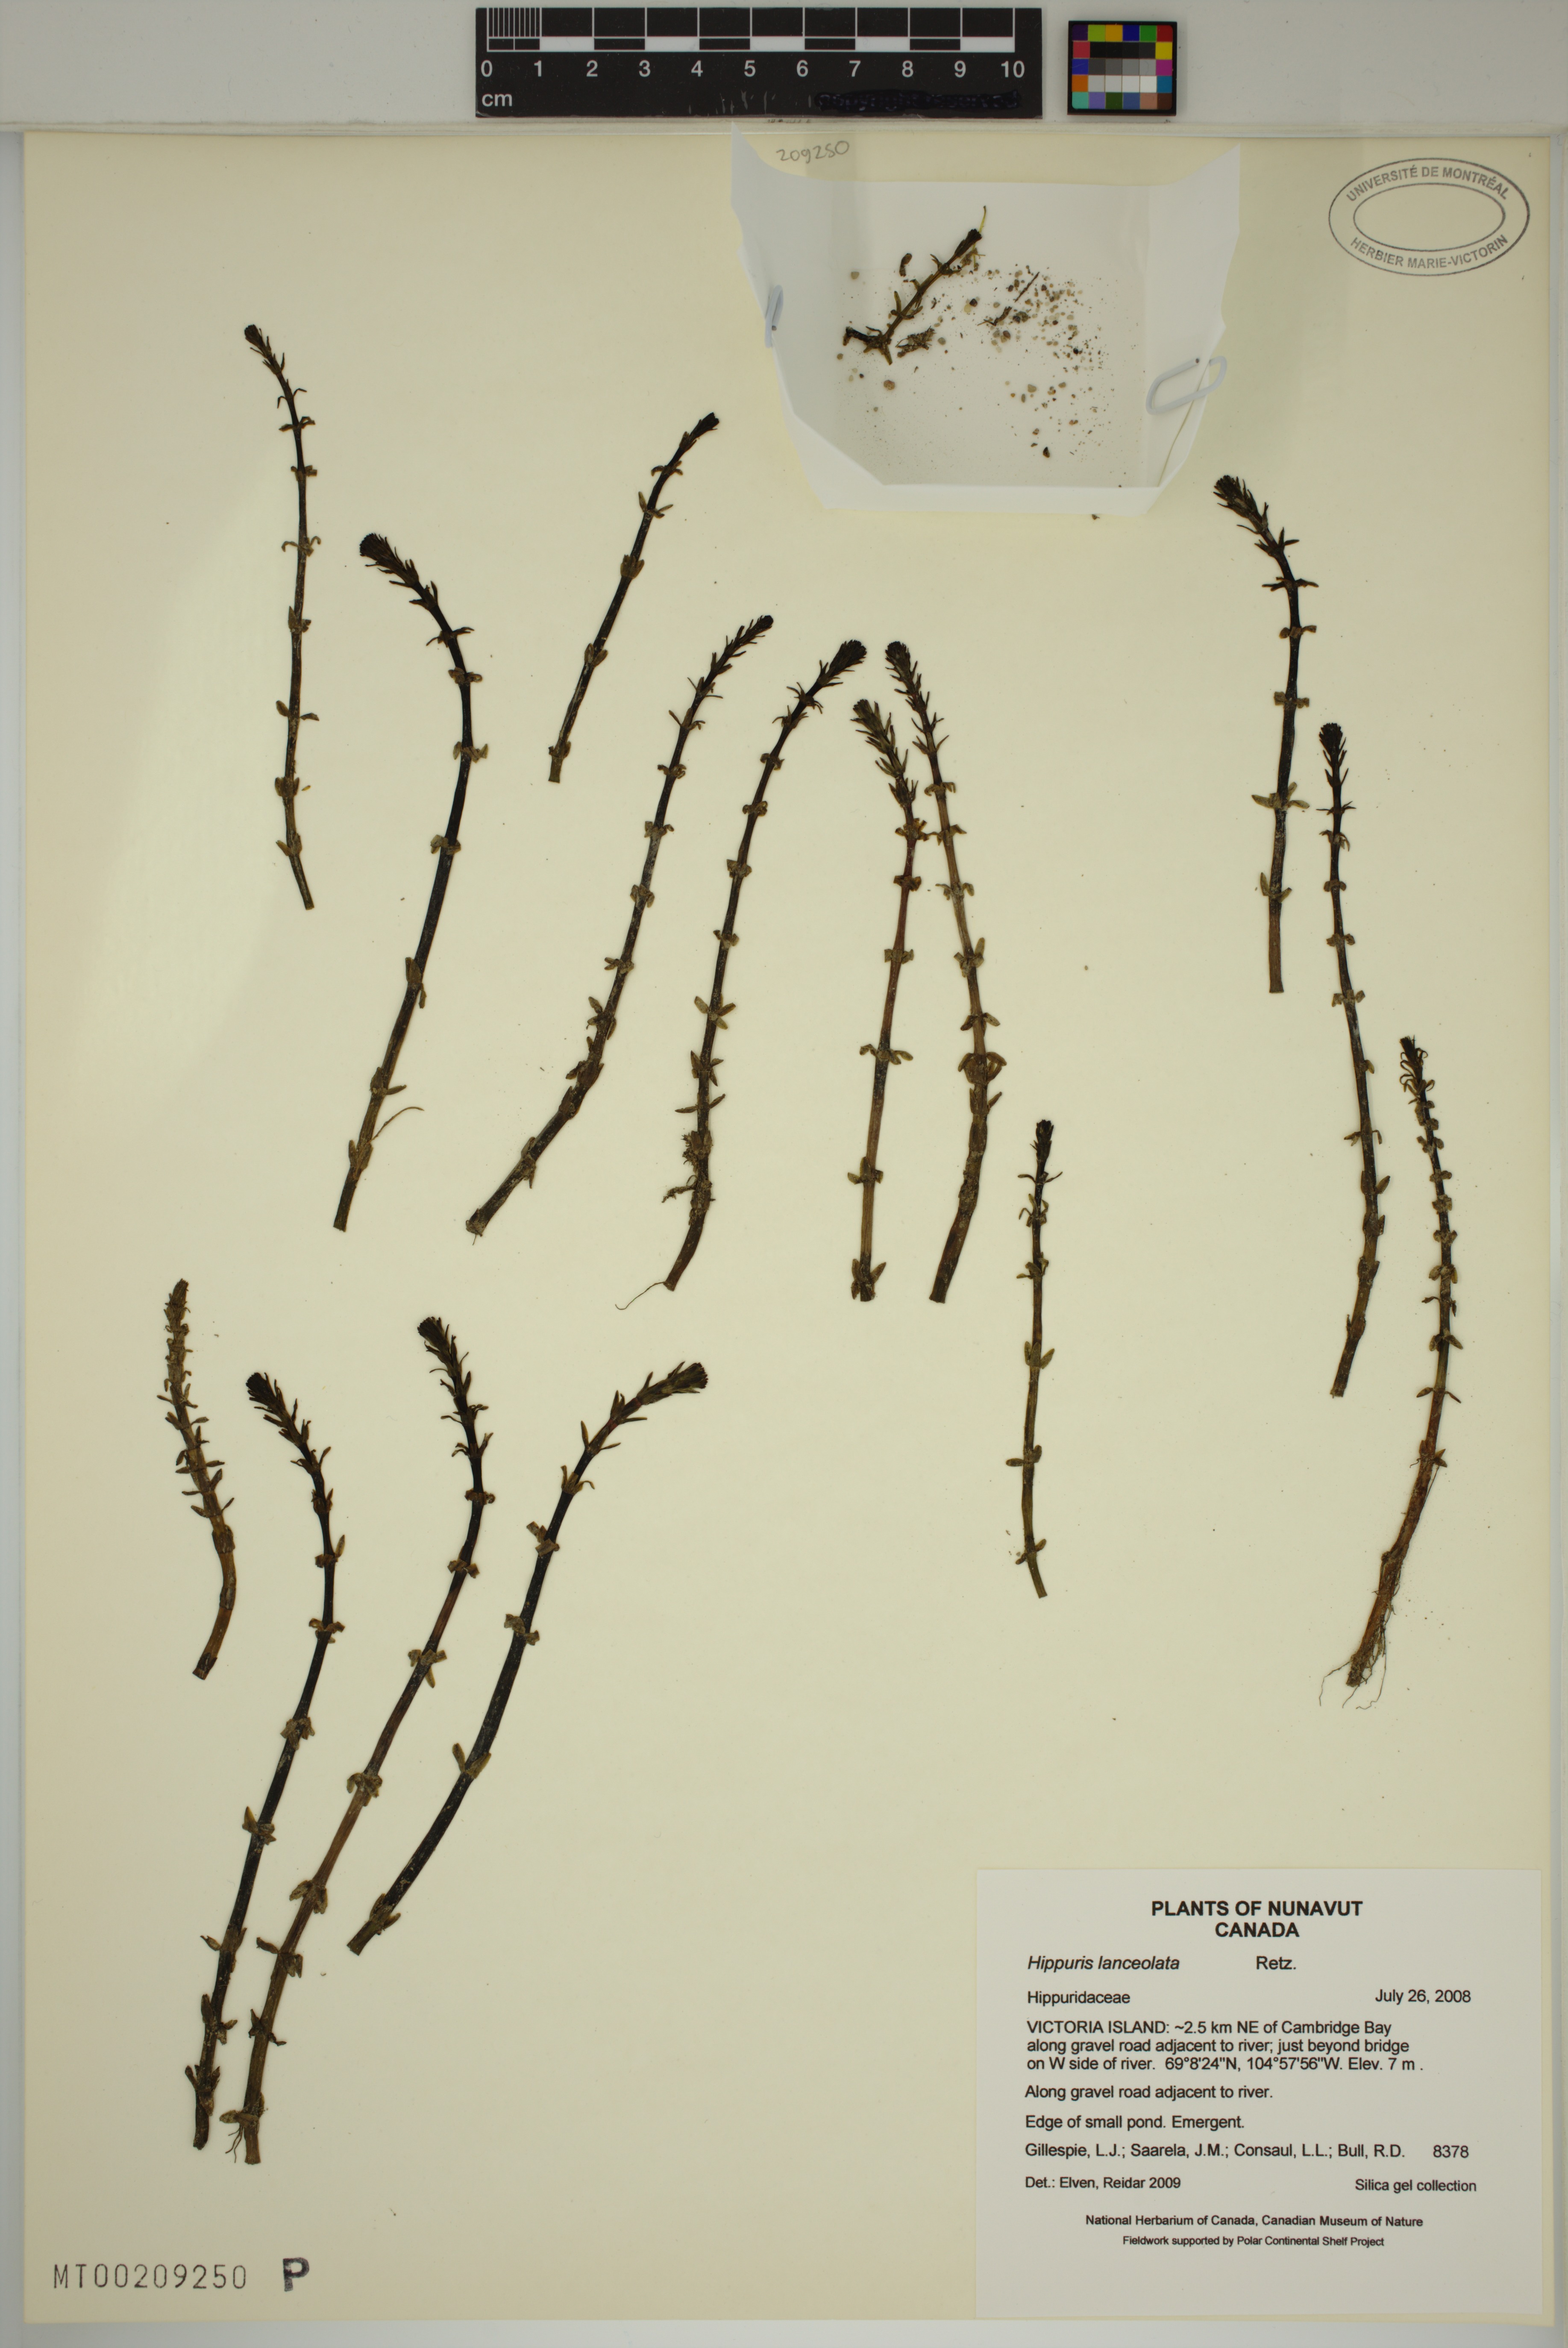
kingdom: Plantae
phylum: Tracheophyta
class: Magnoliopsida
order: Lamiales
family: Plantaginaceae
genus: Hippuris
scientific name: Hippuris lanceolata
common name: Lance-leaved mare's-tail
